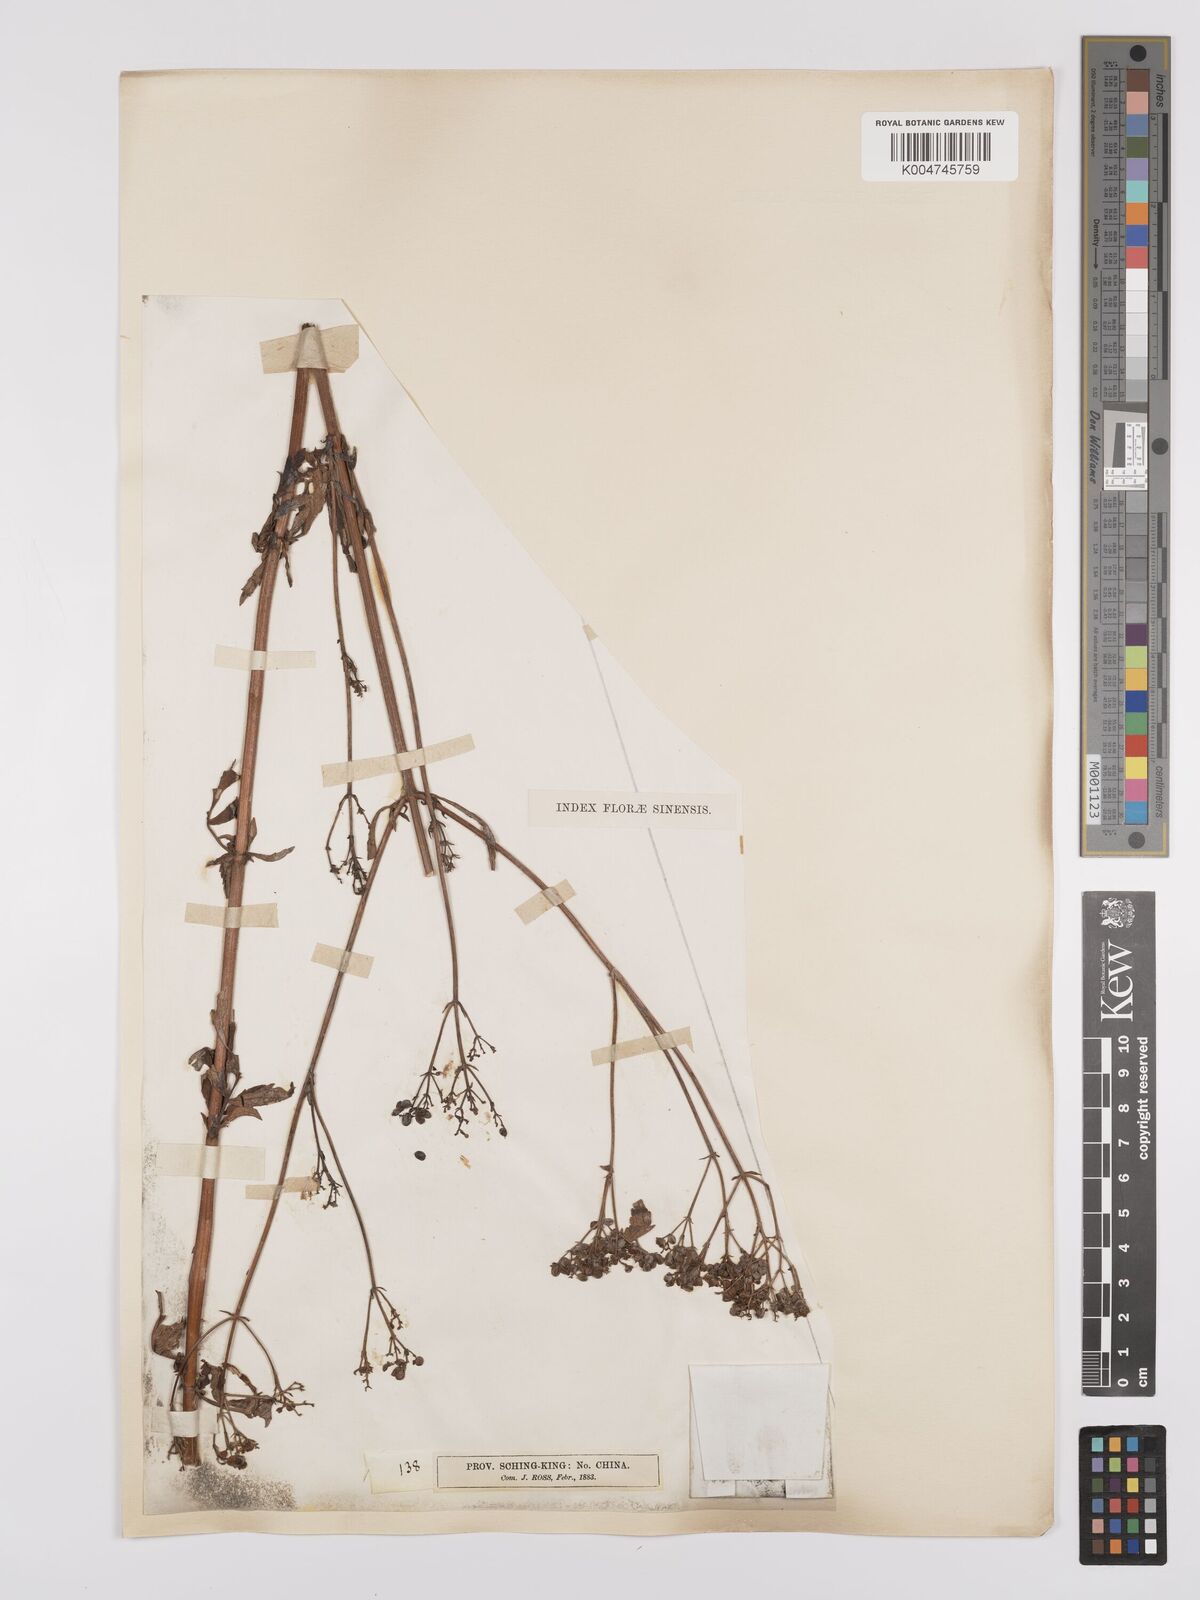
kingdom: Plantae
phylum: Tracheophyta
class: Magnoliopsida
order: Dipsacales
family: Caprifoliaceae
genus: Patrinia
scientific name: Patrinia
